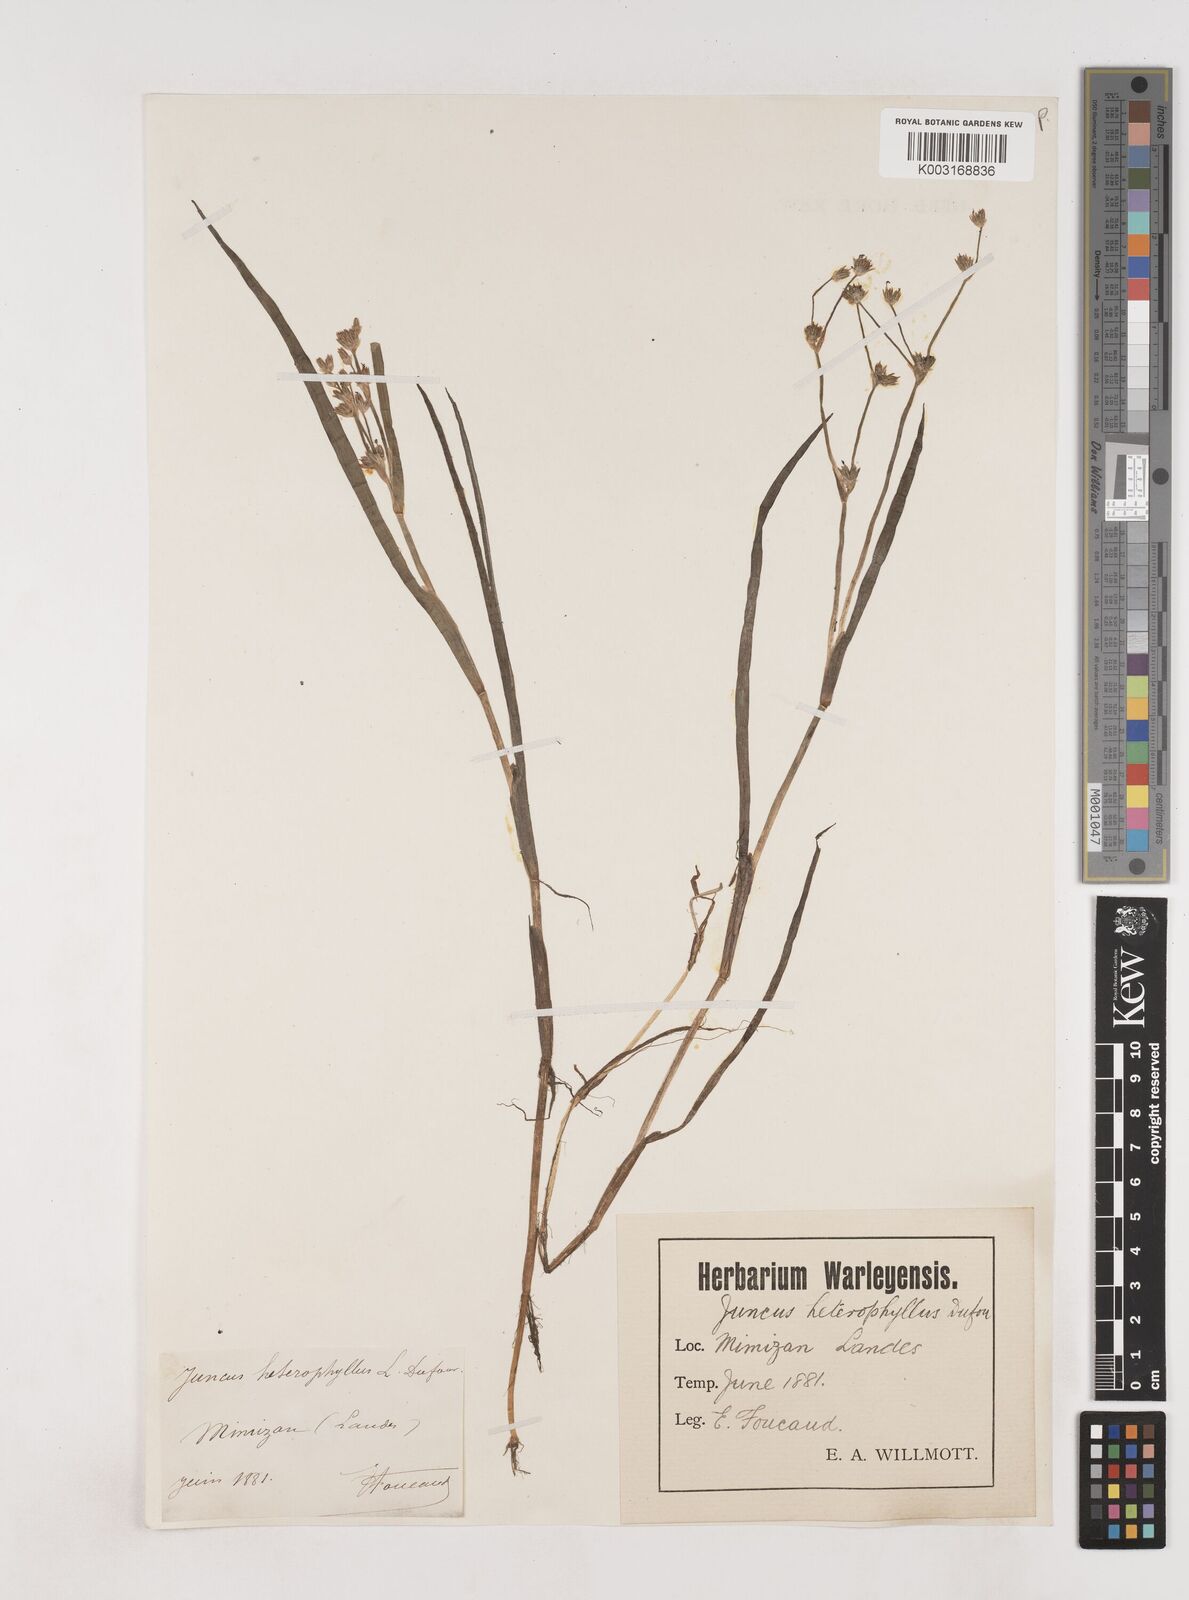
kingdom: Plantae
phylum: Tracheophyta
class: Liliopsida
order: Poales
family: Juncaceae
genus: Juncus
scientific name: Juncus heterophyllus
